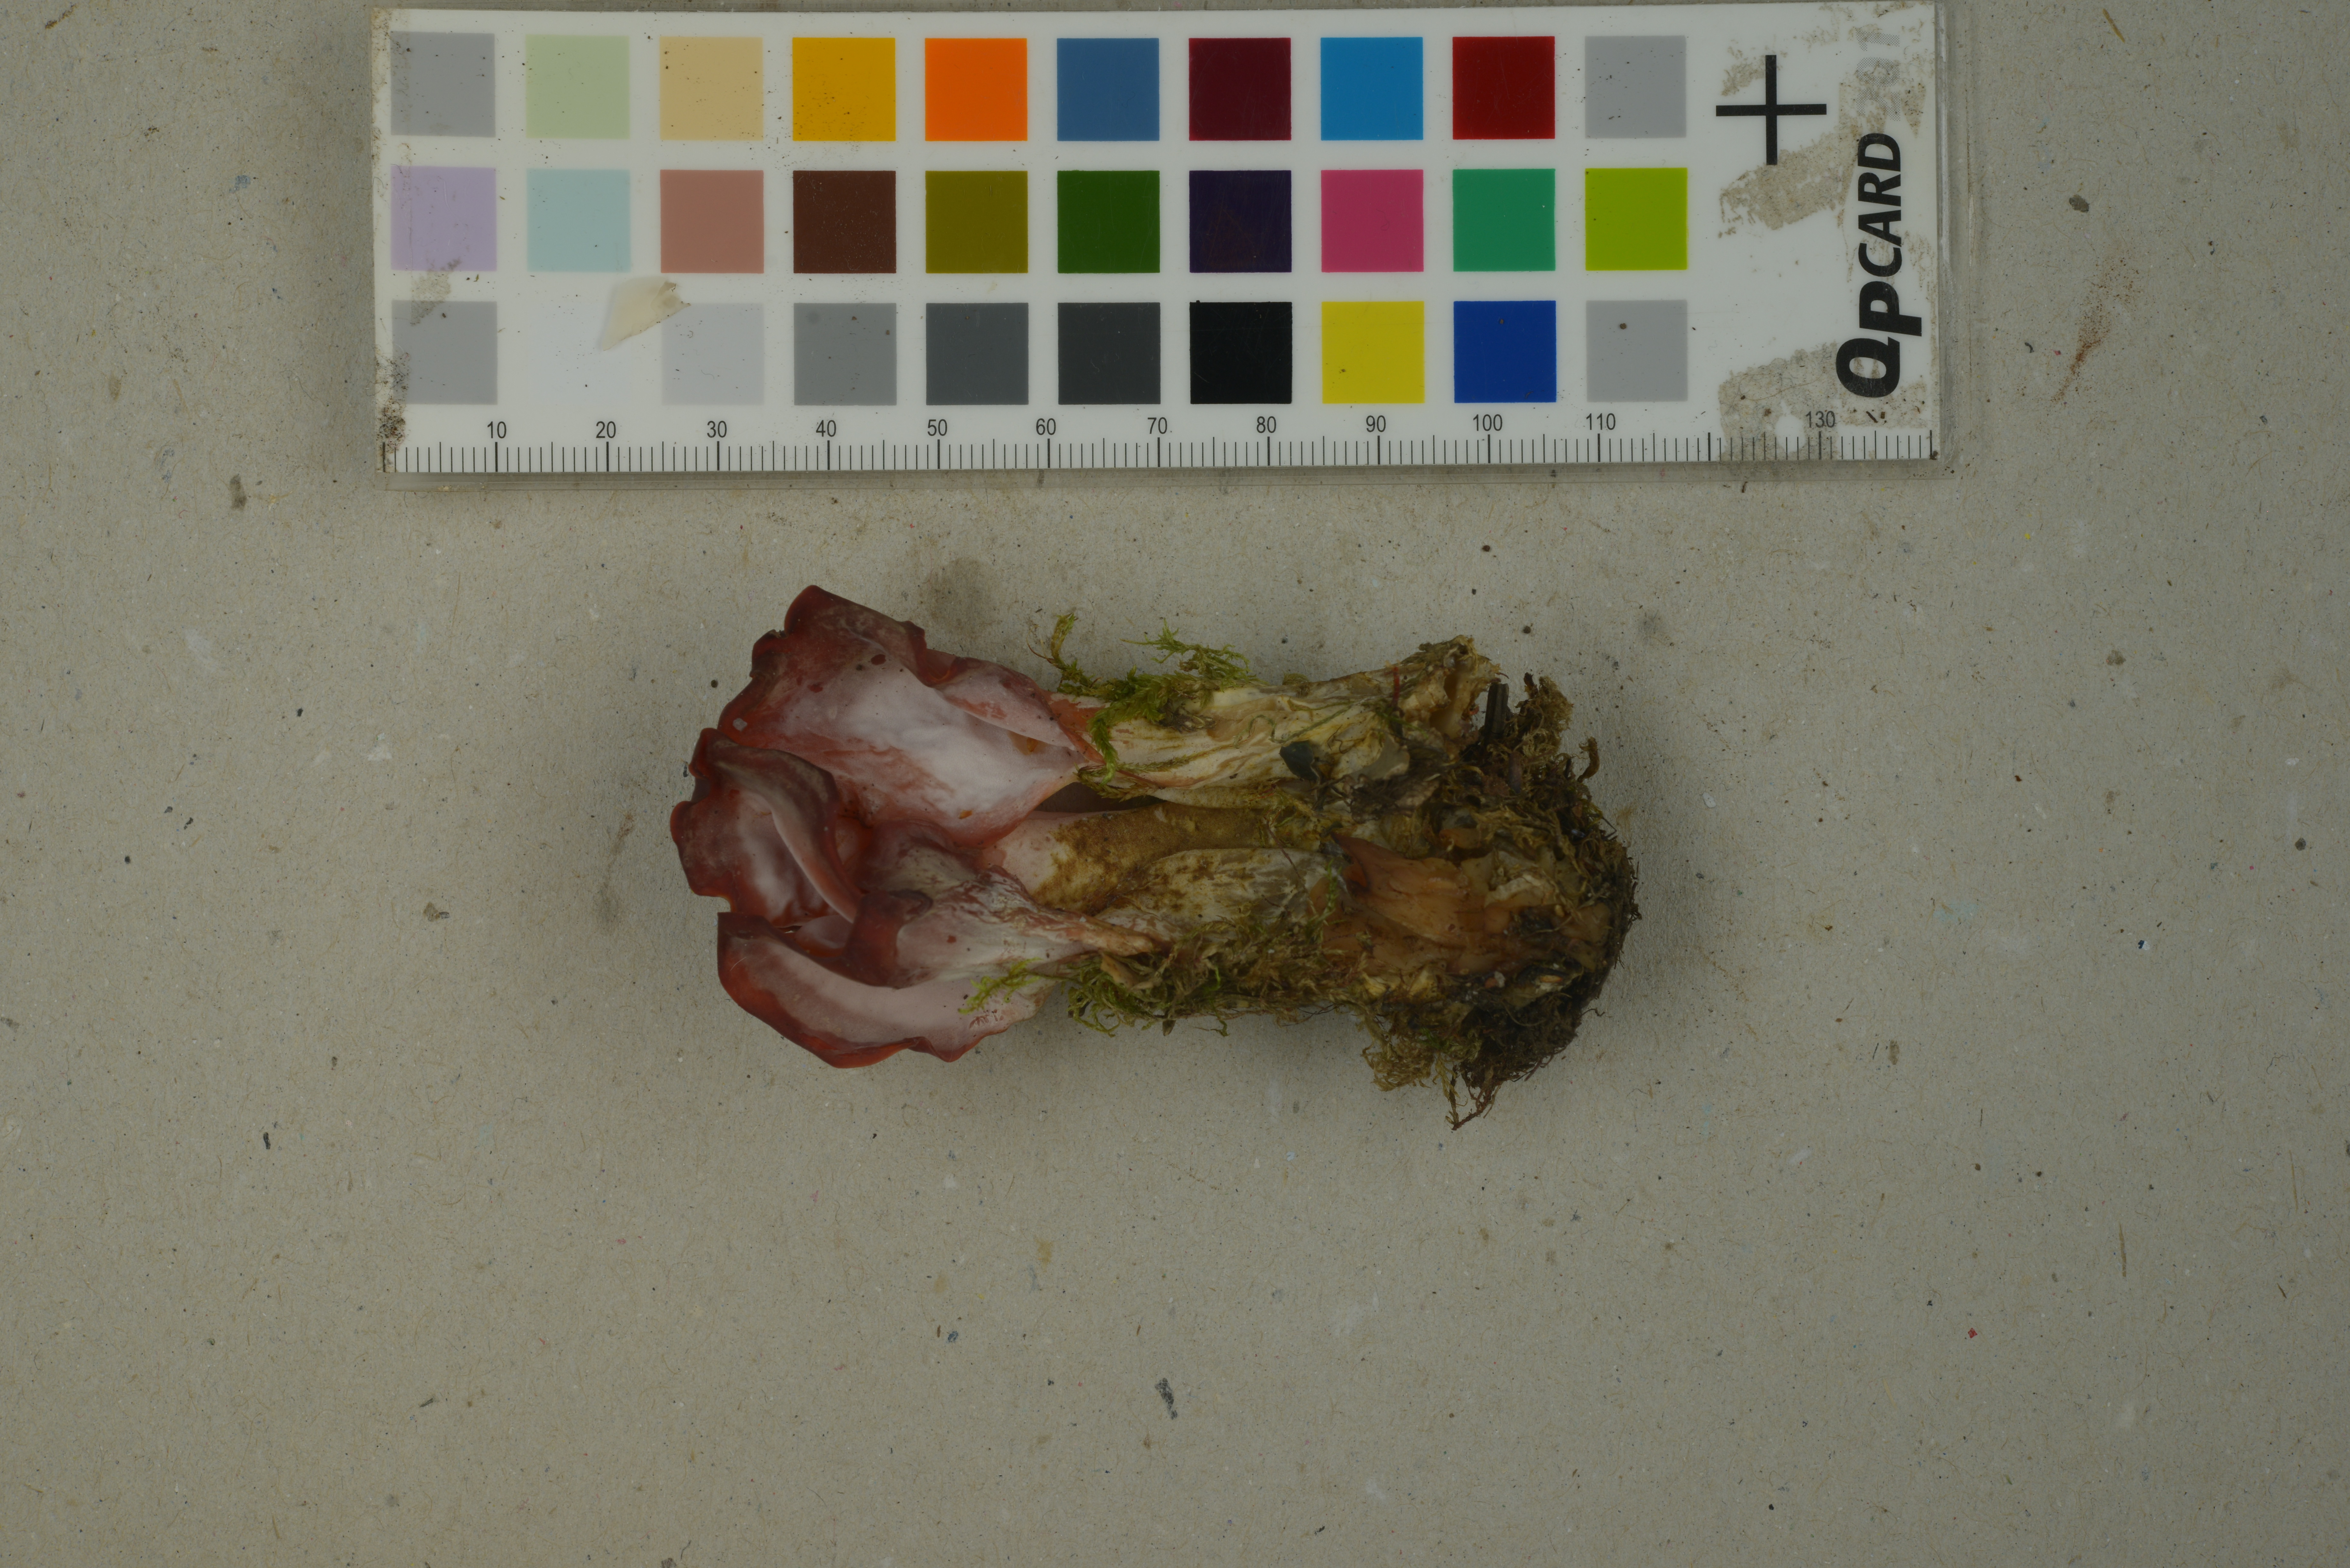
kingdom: Fungi
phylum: Basidiomycota
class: Agaricomycetes
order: Auriculariales
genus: Guepinia
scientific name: Guepinia helvelloides
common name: Salmon salad
